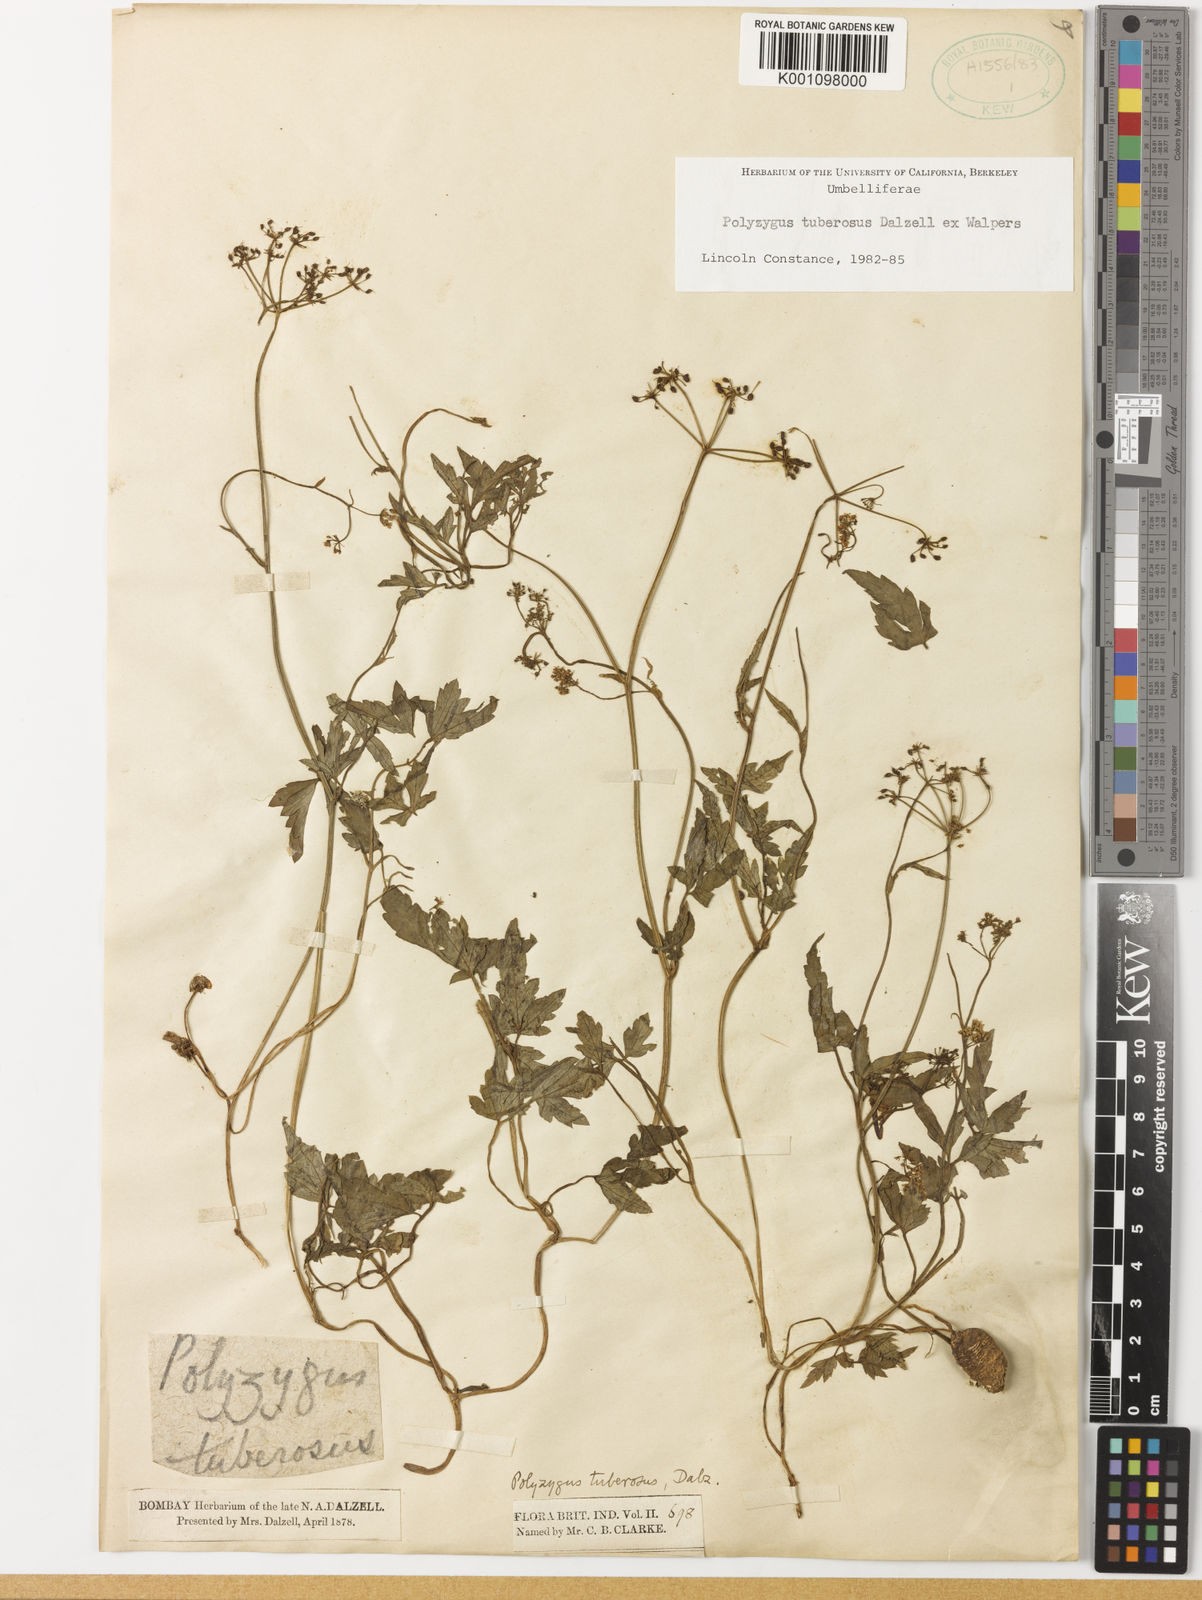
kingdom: Plantae
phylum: Tracheophyta
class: Magnoliopsida
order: Apiales
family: Apiaceae
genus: Polyzygus
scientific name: Polyzygus
